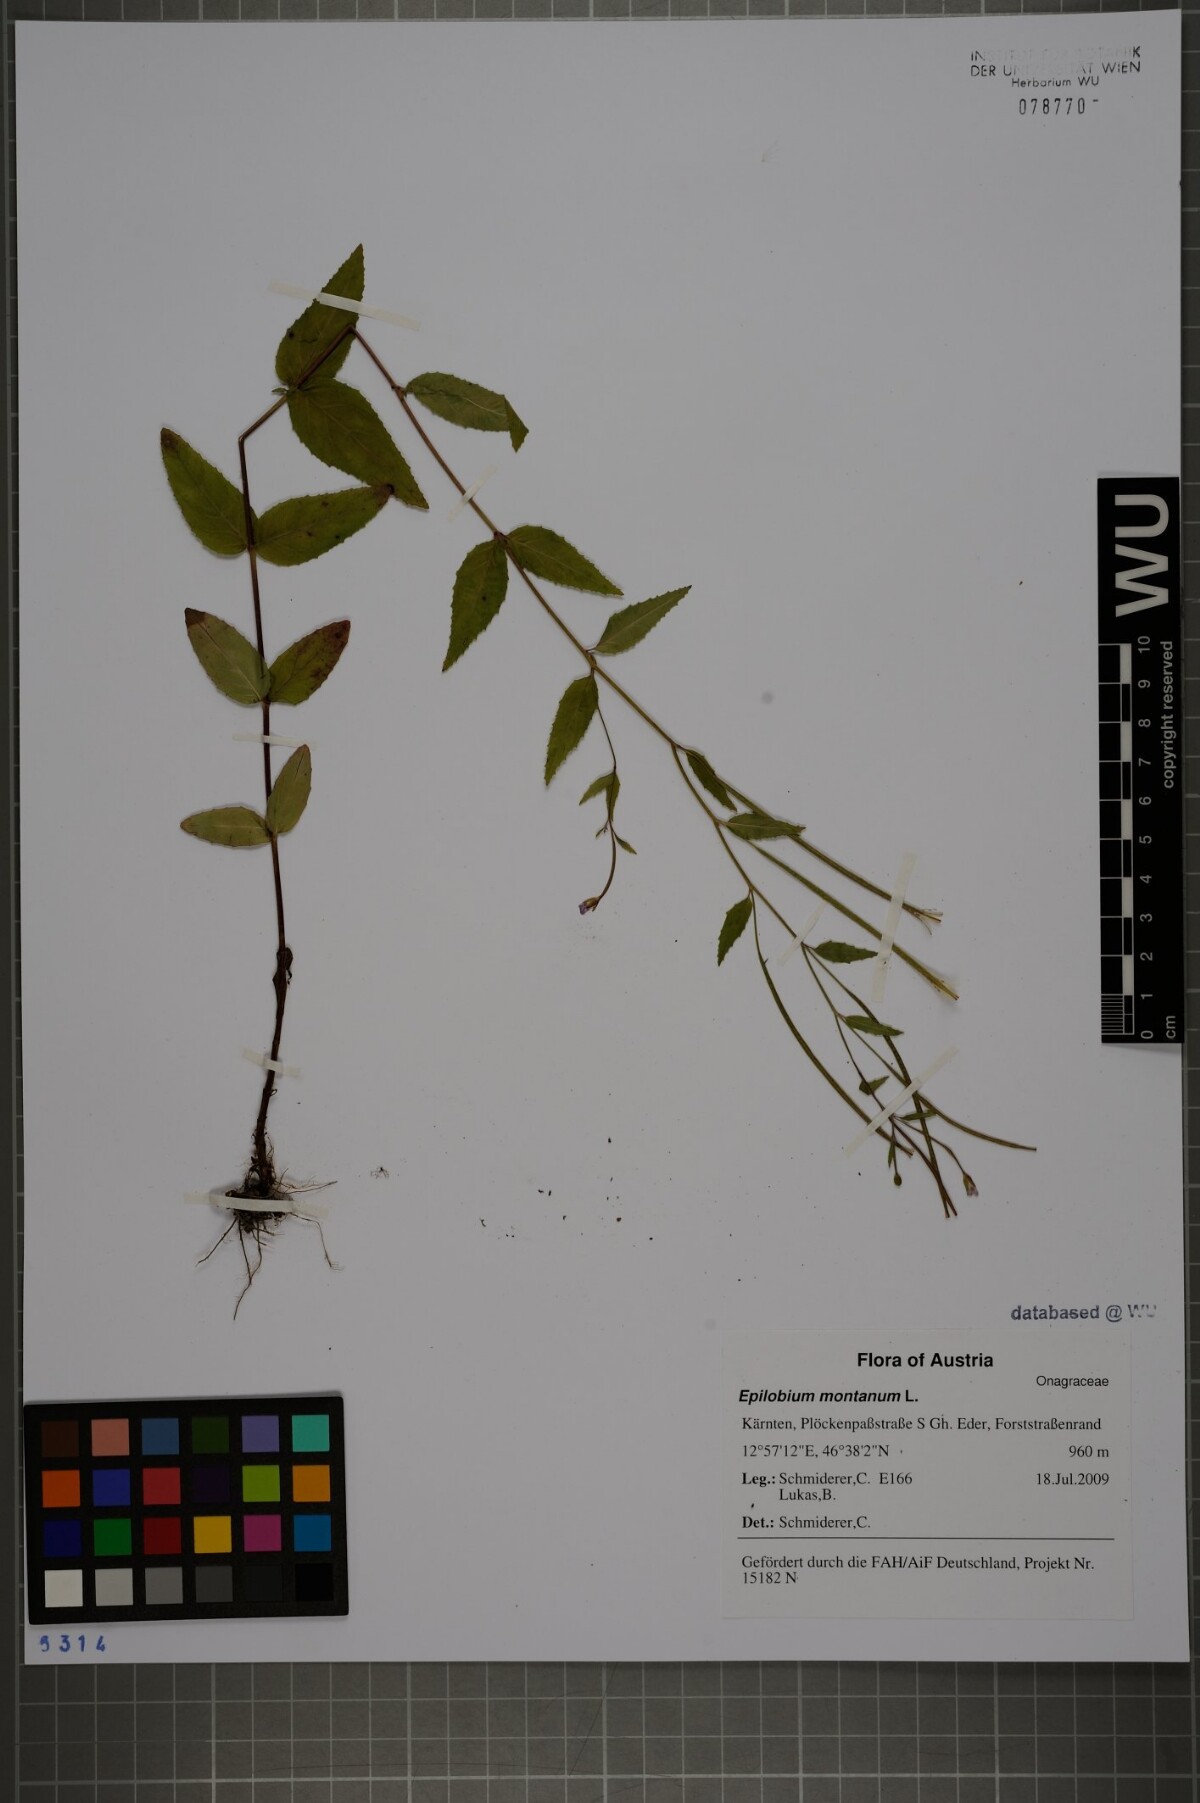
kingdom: Plantae
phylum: Tracheophyta
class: Magnoliopsida
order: Myrtales
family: Onagraceae
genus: Epilobium
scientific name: Epilobium montanum
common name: Broad-leaved willowherb
